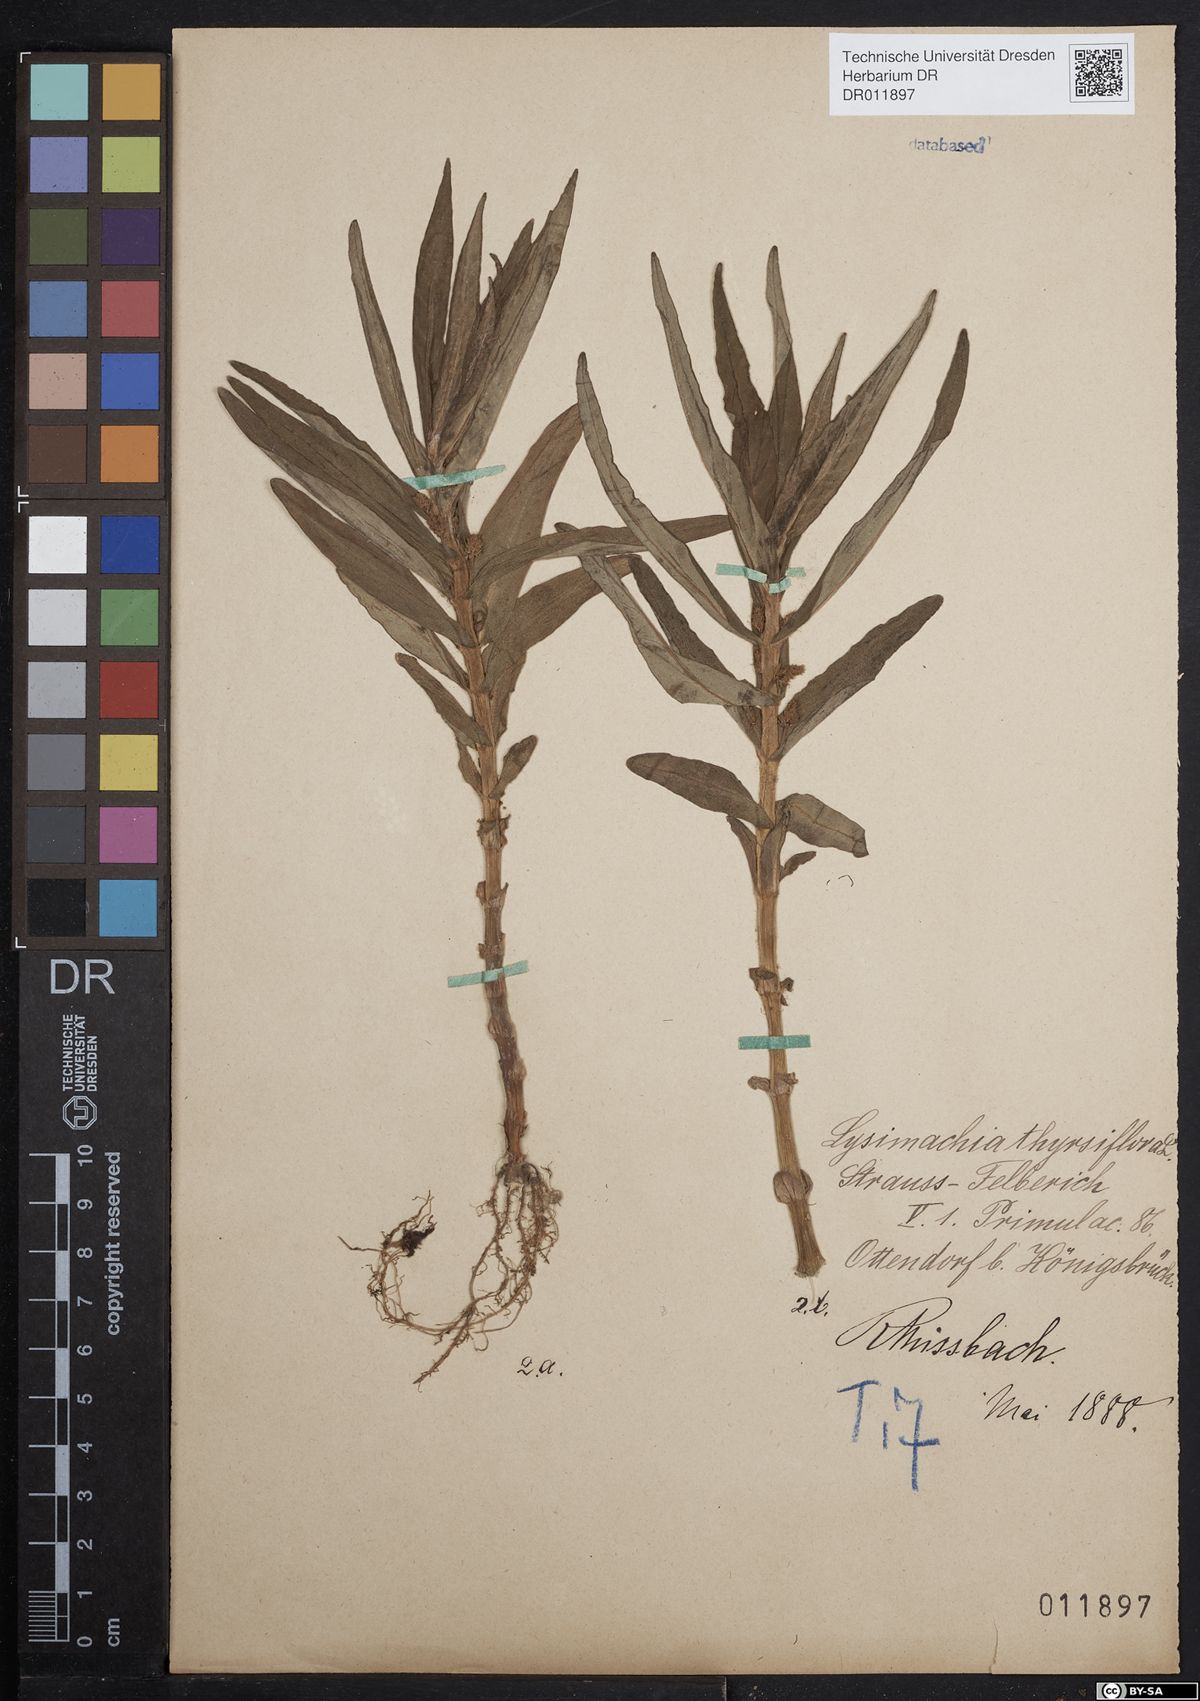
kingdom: Plantae
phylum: Tracheophyta
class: Magnoliopsida
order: Ericales
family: Primulaceae
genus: Lysimachia
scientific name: Lysimachia thyrsiflora
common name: Tufted loosestrife
